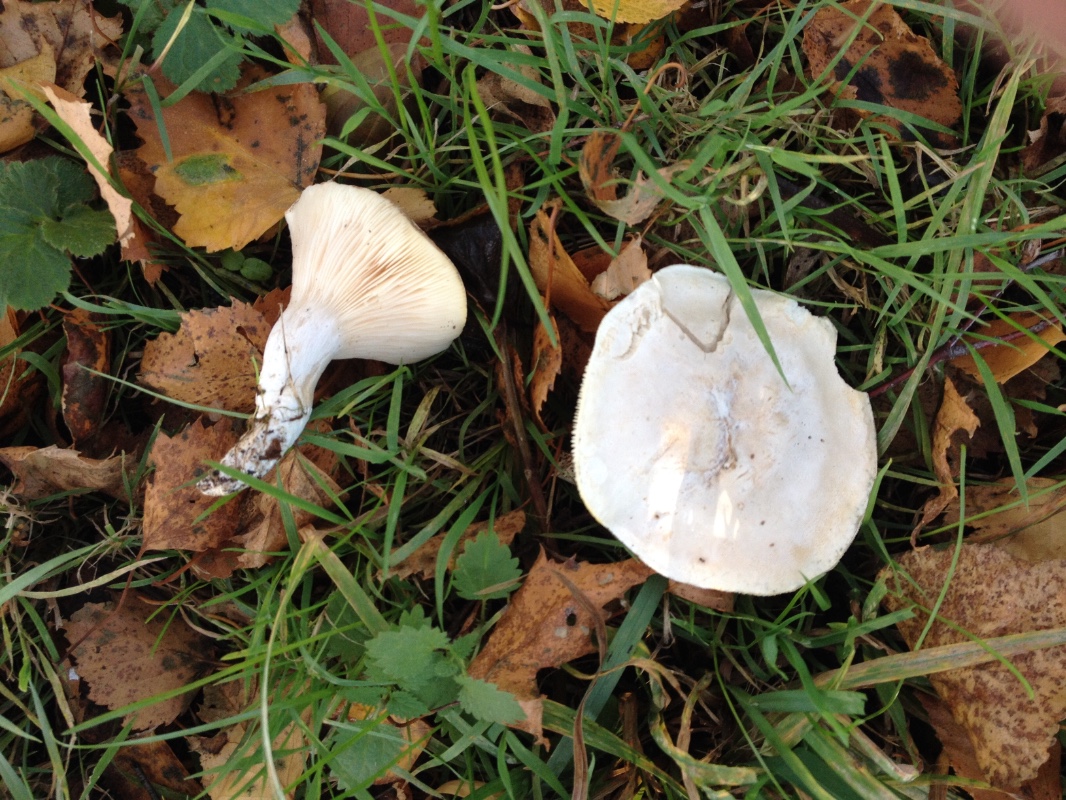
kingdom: Fungi
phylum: Basidiomycota
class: Agaricomycetes
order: Agaricales
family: Entolomataceae
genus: Clitopilus
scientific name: Clitopilus prunulus
